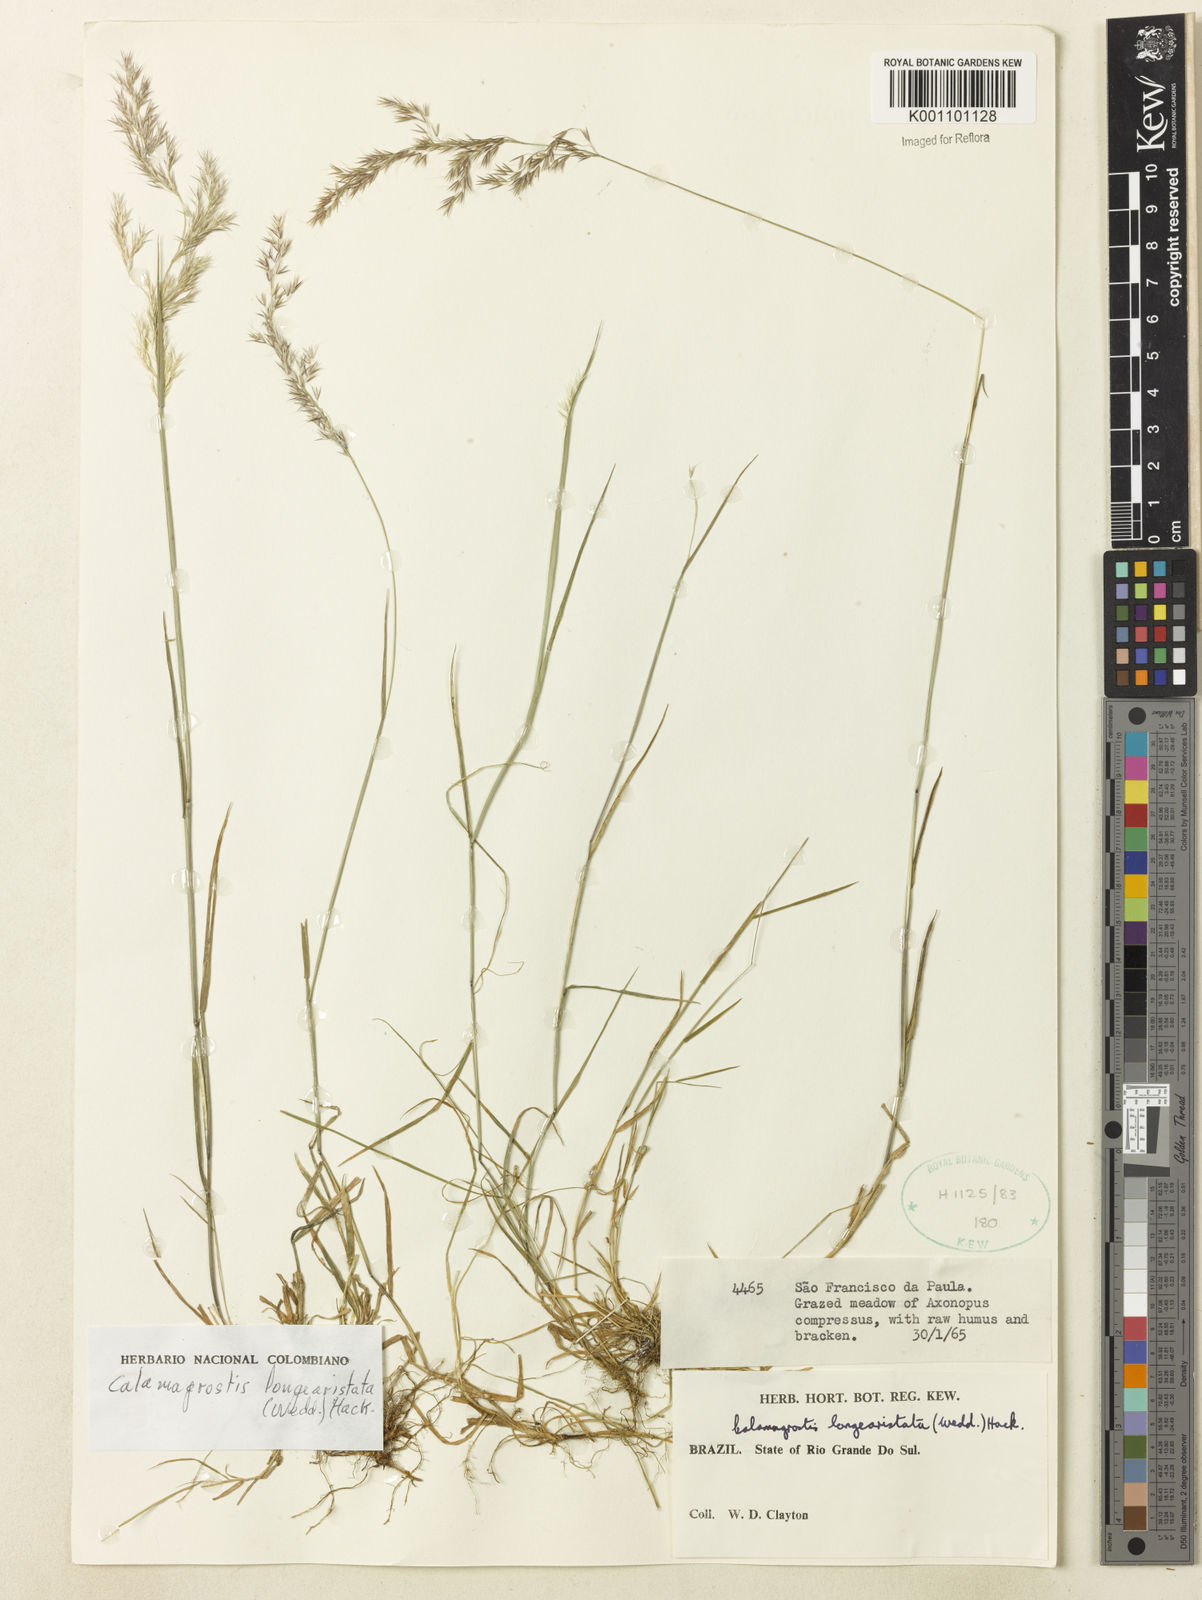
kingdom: Plantae
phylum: Tracheophyta
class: Liliopsida
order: Poales
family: Poaceae
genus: Cinnagrostis
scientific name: Cinnagrostis rupestris
